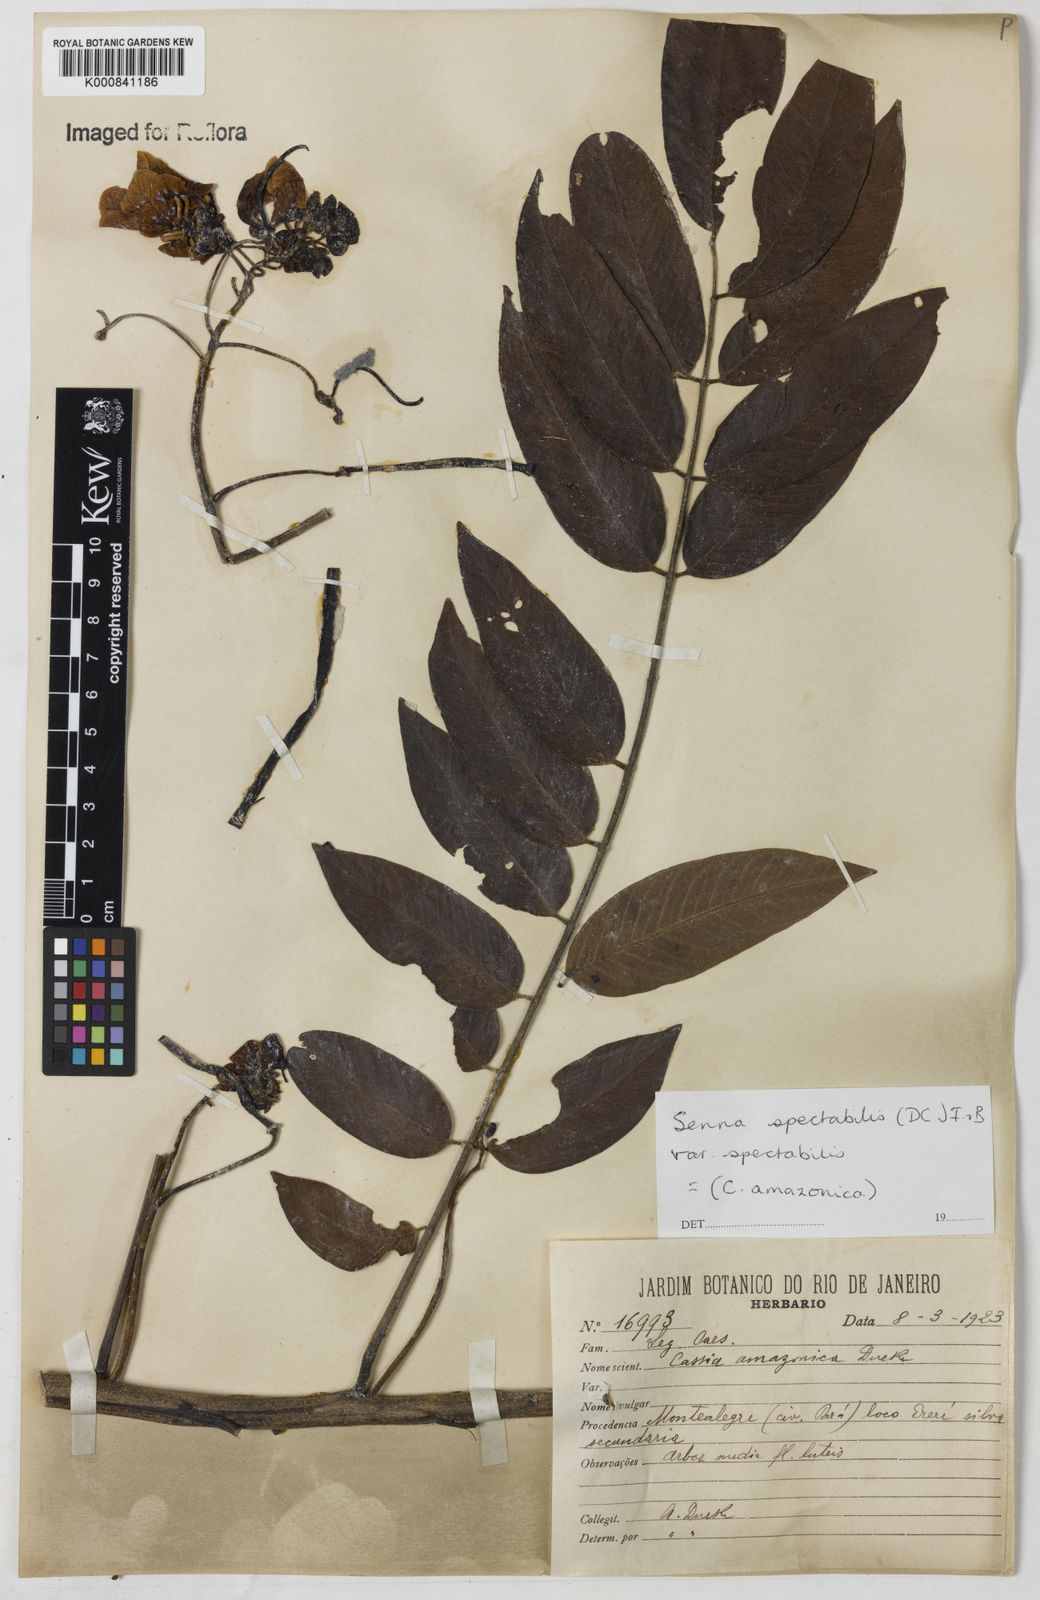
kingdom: Plantae
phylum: Tracheophyta
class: Magnoliopsida
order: Fabales
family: Fabaceae
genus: Senna
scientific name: Senna spectabilis
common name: Casia amarilla
